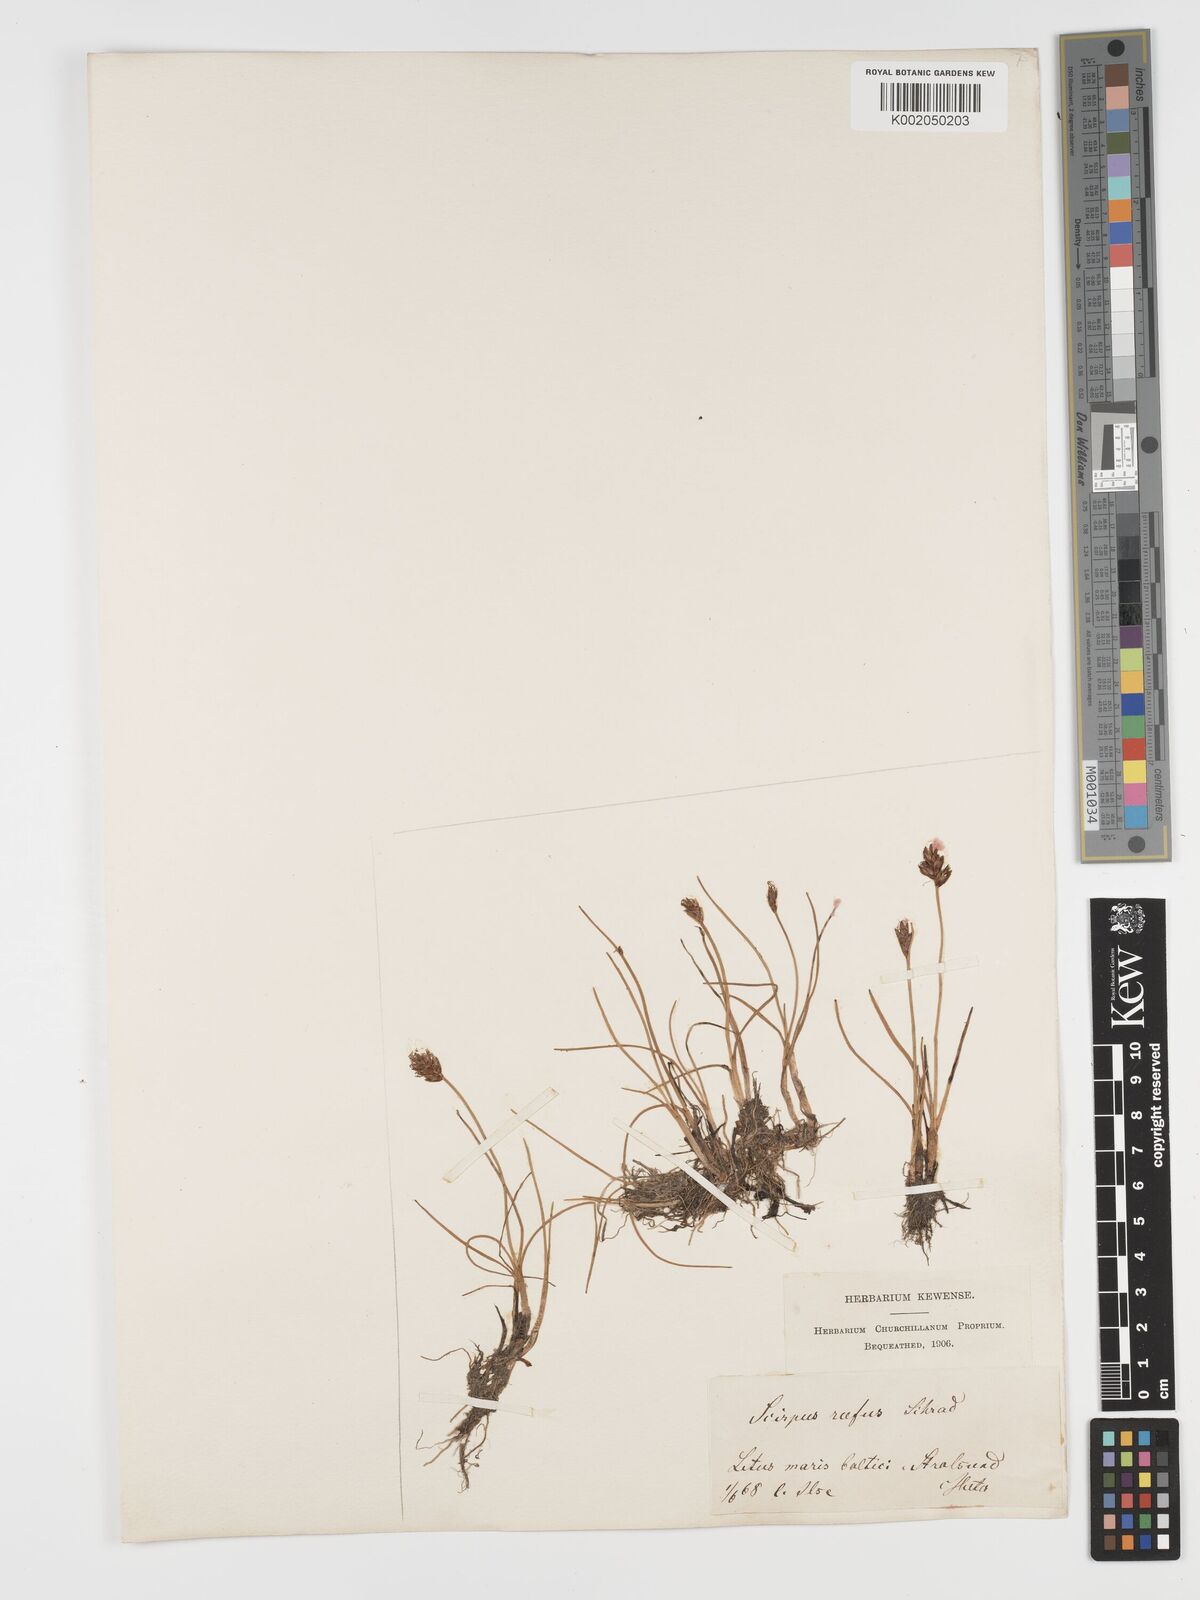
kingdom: Plantae
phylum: Tracheophyta
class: Liliopsida
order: Poales
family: Cyperaceae
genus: Blysmus
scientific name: Blysmus rufus
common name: Saltmarsh flat-sedge
